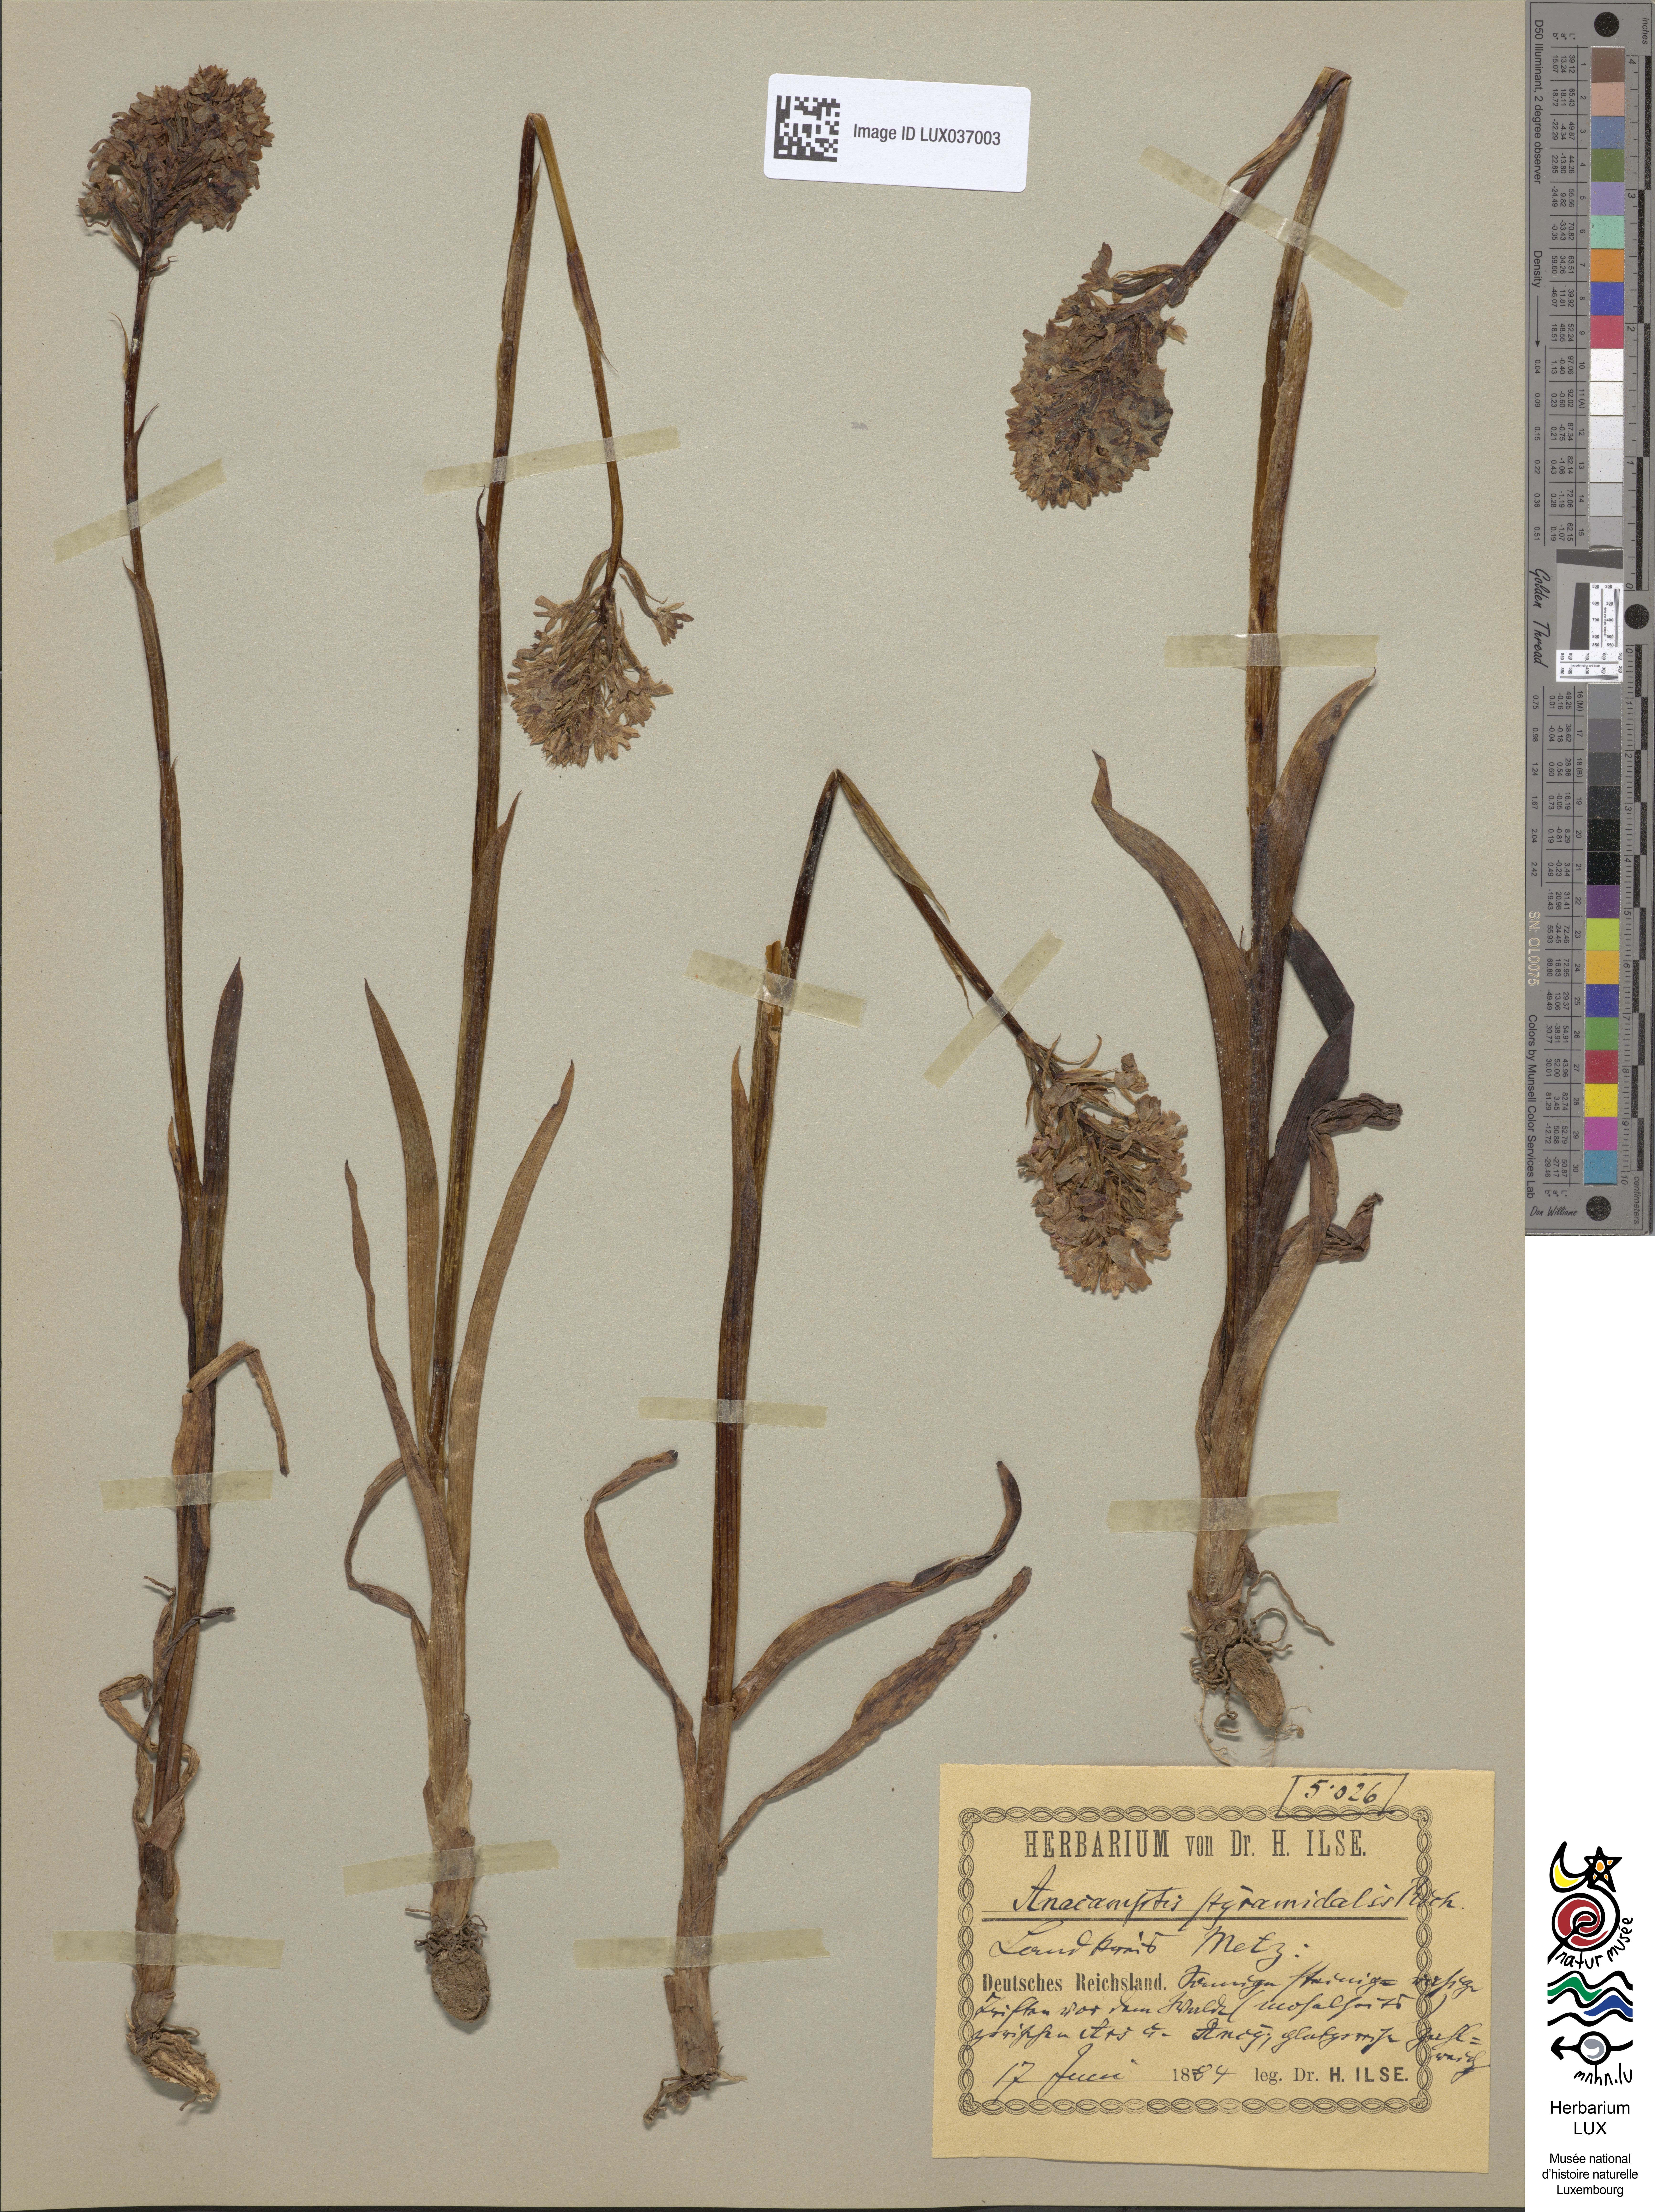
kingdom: Plantae
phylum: Tracheophyta
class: Liliopsida
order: Asparagales
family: Orchidaceae
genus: Anacamptis
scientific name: Anacamptis pyramidalis
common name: Pyramidal orchid
